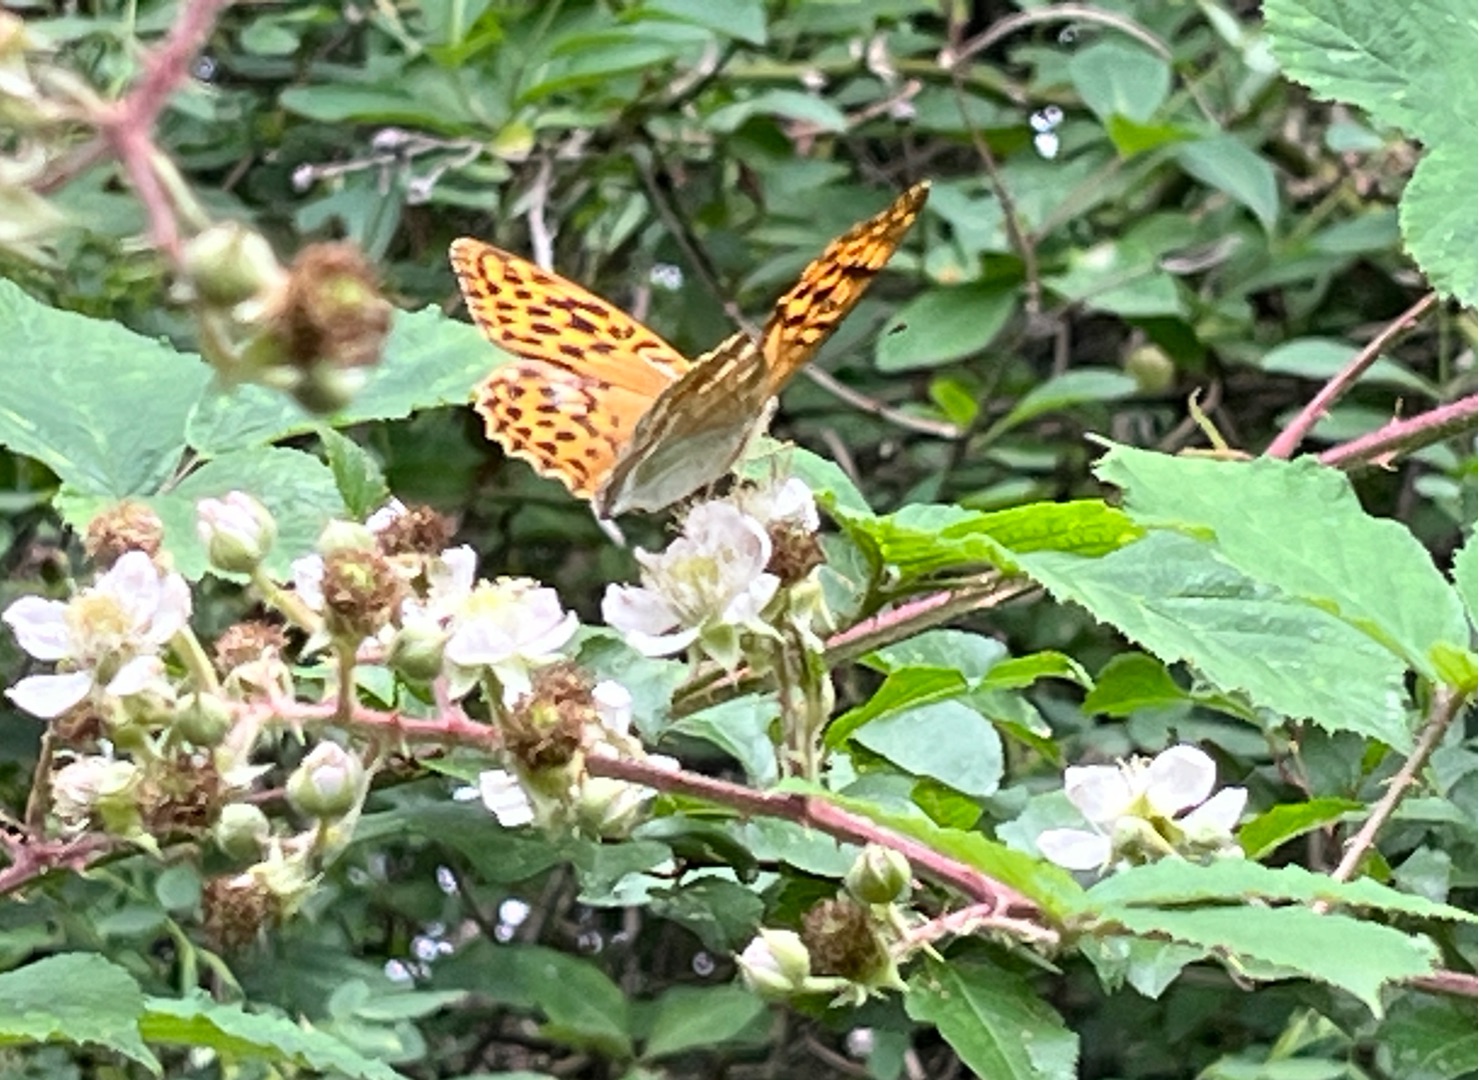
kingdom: Animalia
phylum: Arthropoda
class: Insecta
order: Lepidoptera
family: Nymphalidae
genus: Argynnis
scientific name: Argynnis paphia
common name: Kejserkåbe
